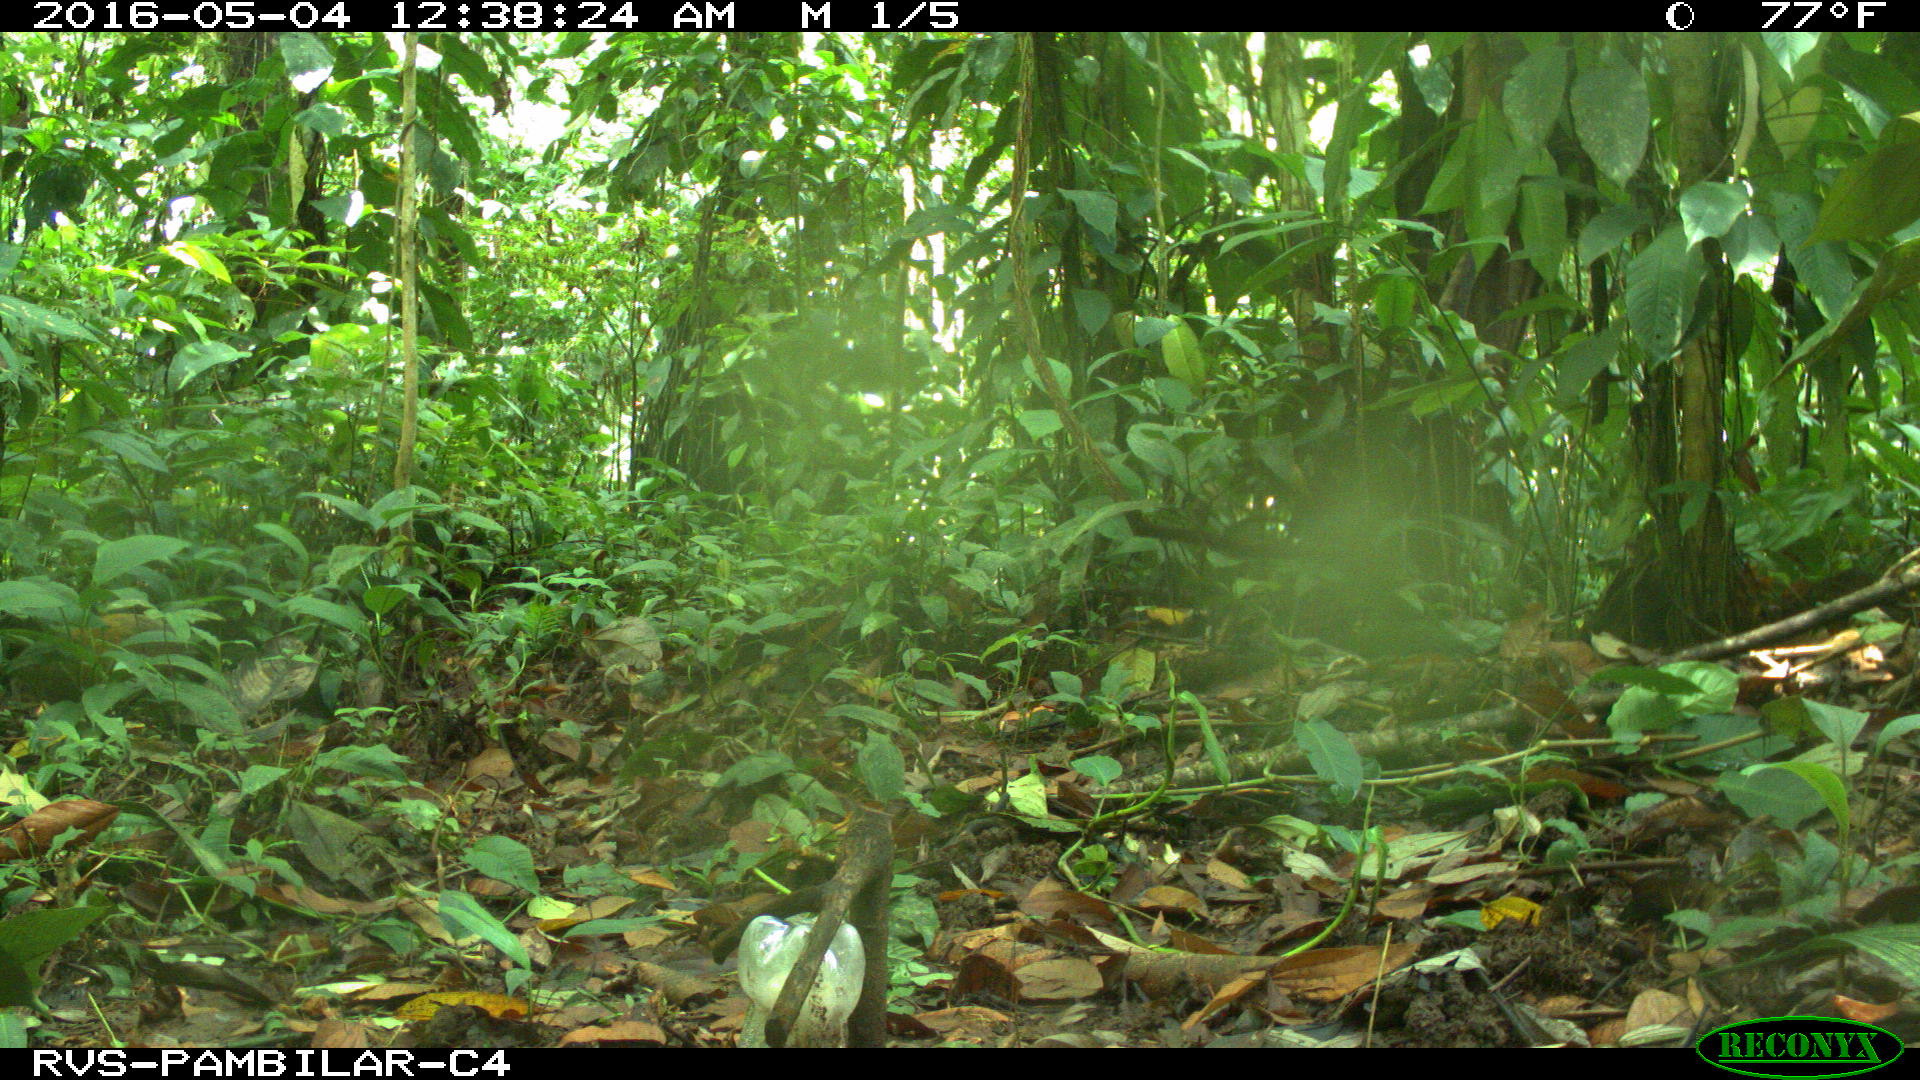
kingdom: Animalia
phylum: Chordata
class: Mammalia
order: Rodentia
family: Dasyproctidae
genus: Dasyprocta
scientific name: Dasyprocta punctata
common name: Central american agouti
